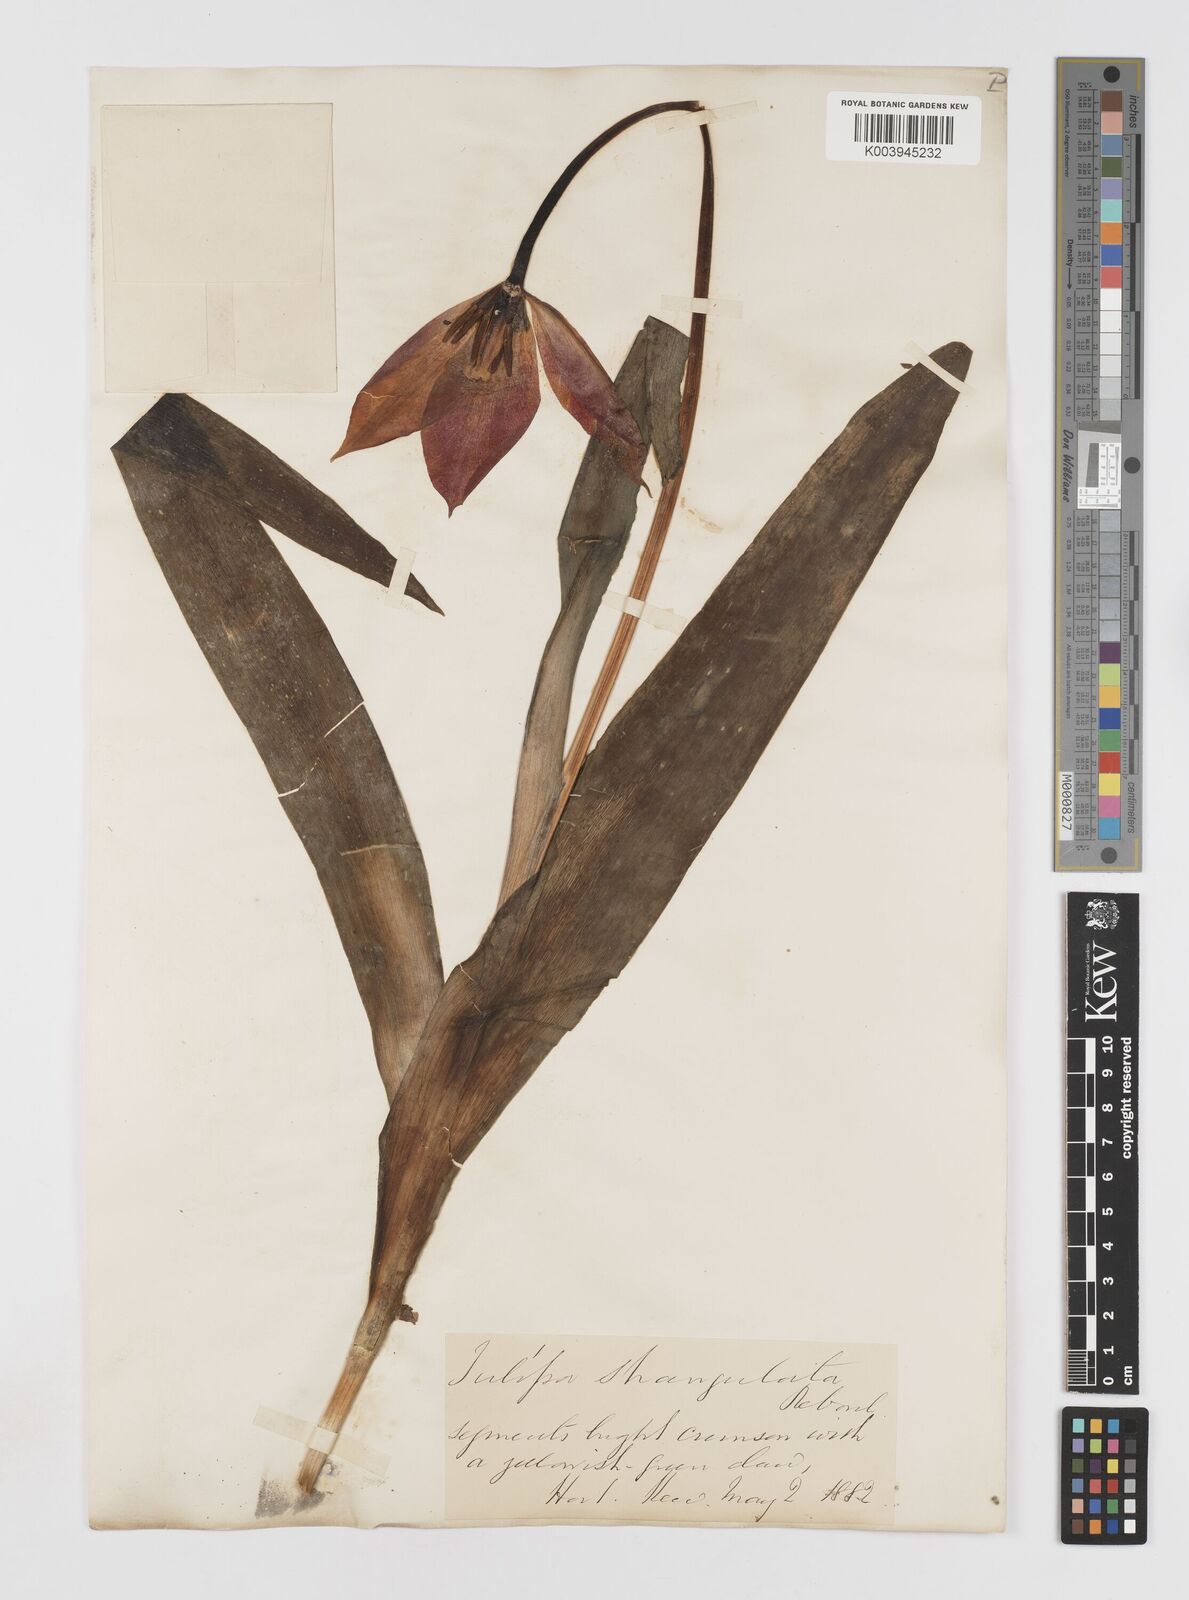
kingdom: Plantae
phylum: Tracheophyta
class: Liliopsida
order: Liliales
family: Liliaceae
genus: Tulipa
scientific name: Tulipa
